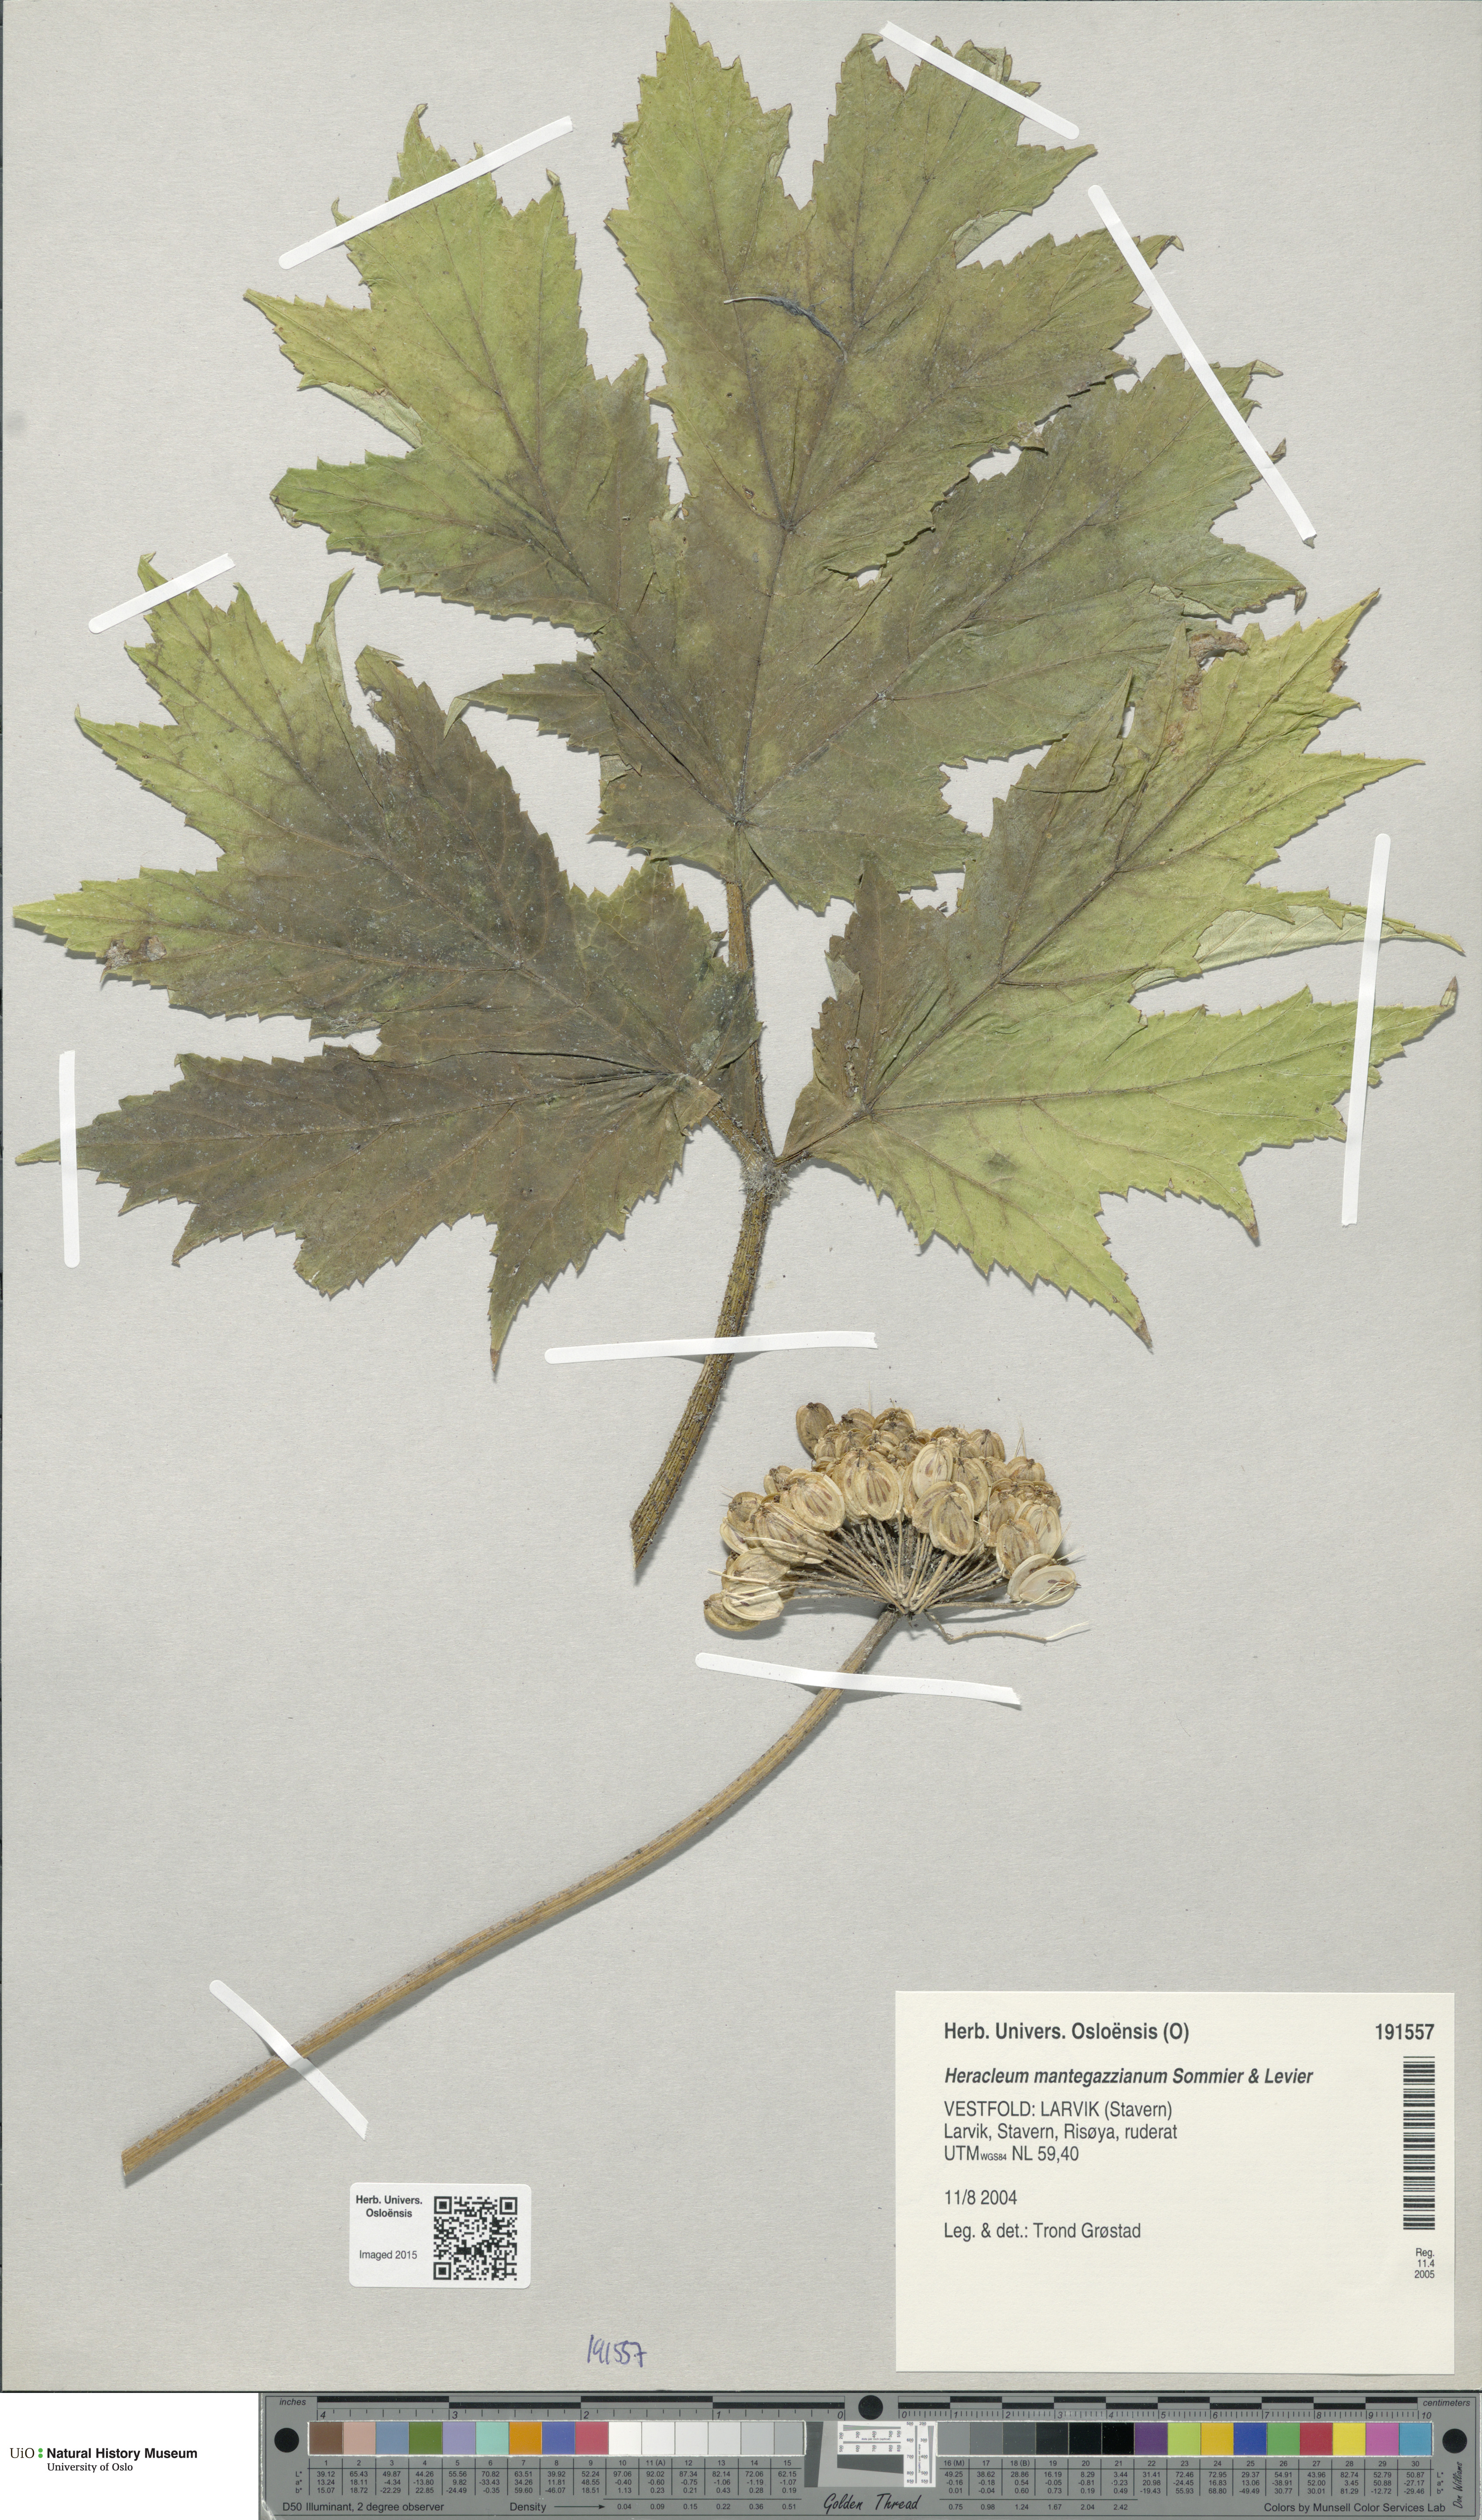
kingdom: Plantae
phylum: Tracheophyta
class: Magnoliopsida
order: Apiales
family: Apiaceae
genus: Heracleum
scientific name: Heracleum mantegazzianum
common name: Giant hogweed
